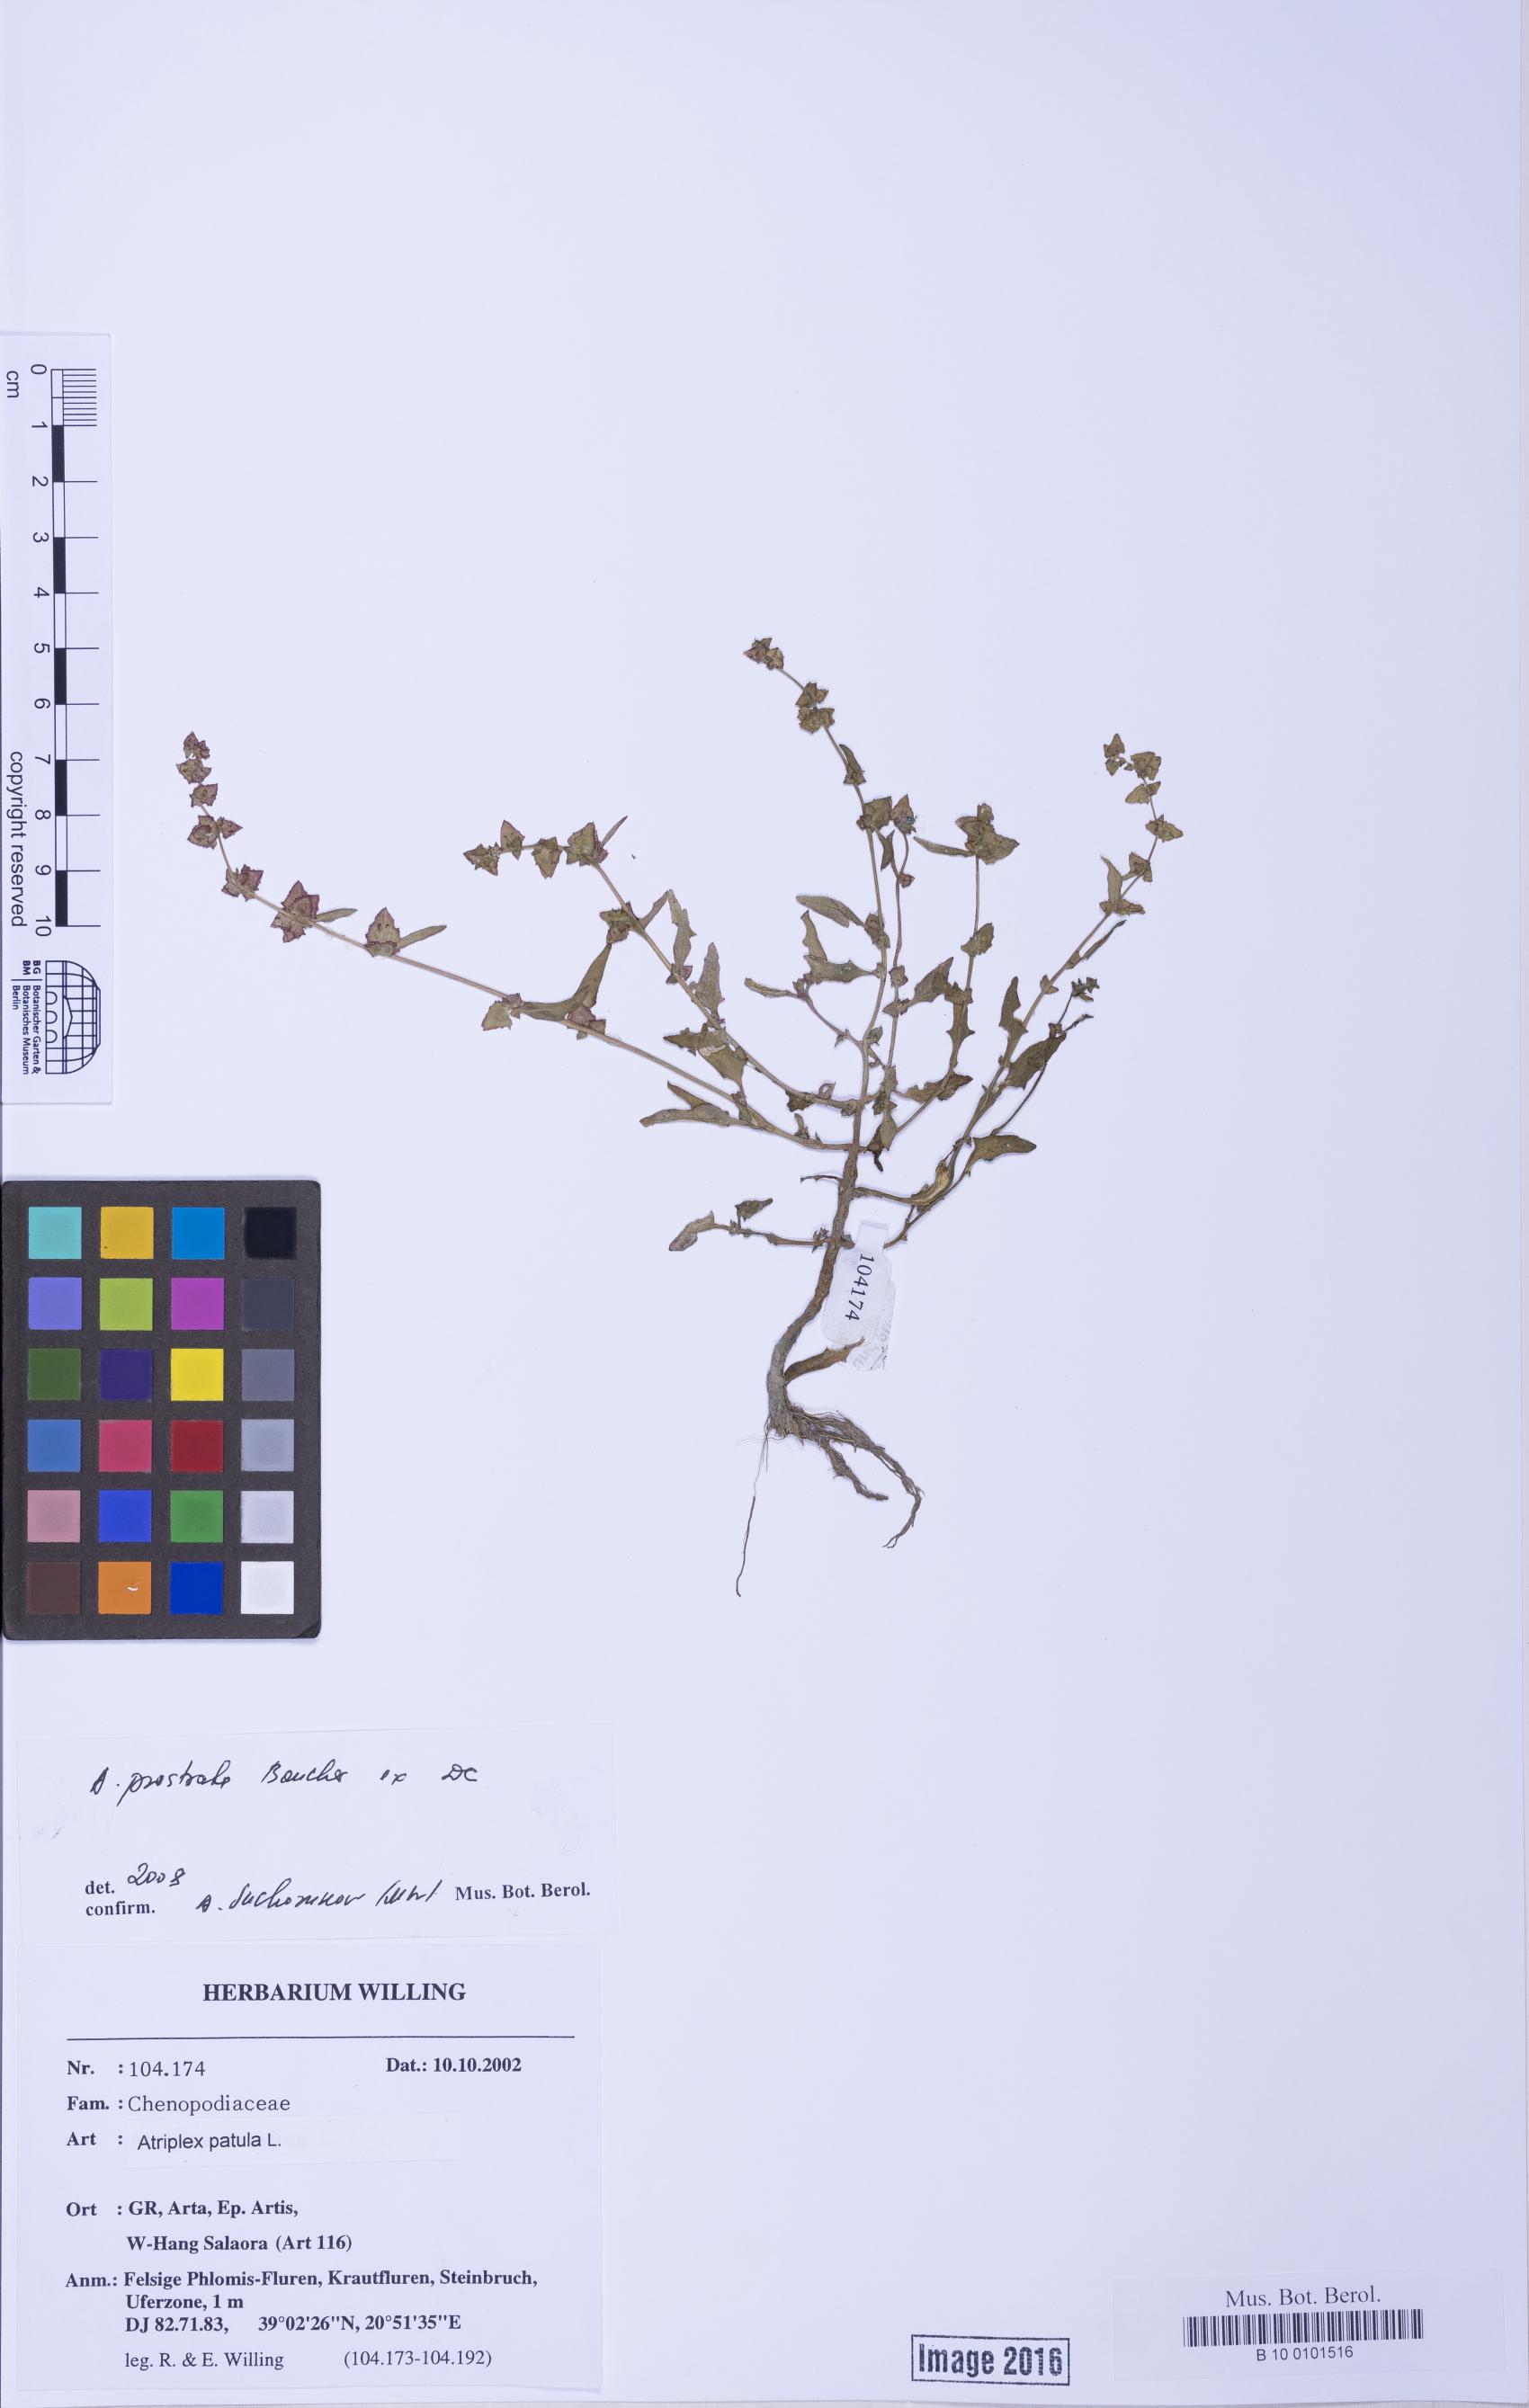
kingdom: Plantae
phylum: Tracheophyta
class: Magnoliopsida
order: Caryophyllales
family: Amaranthaceae
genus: Atriplex
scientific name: Atriplex prostrata
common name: Spear-leaved orache
